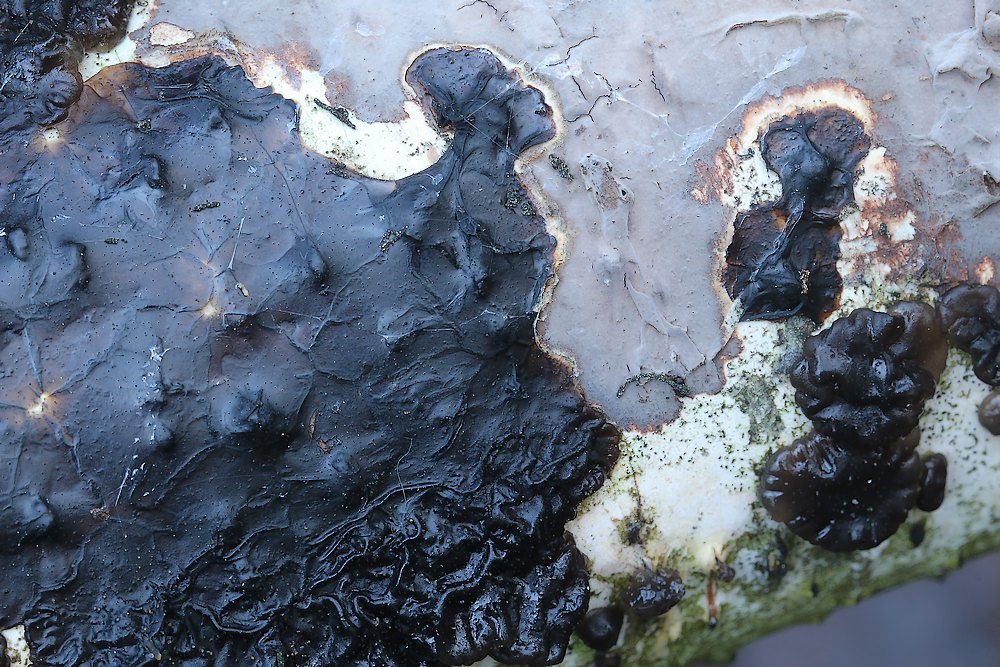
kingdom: Fungi
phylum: Basidiomycota
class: Agaricomycetes
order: Russulales
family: Peniophoraceae
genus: Peniophora
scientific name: Peniophora
